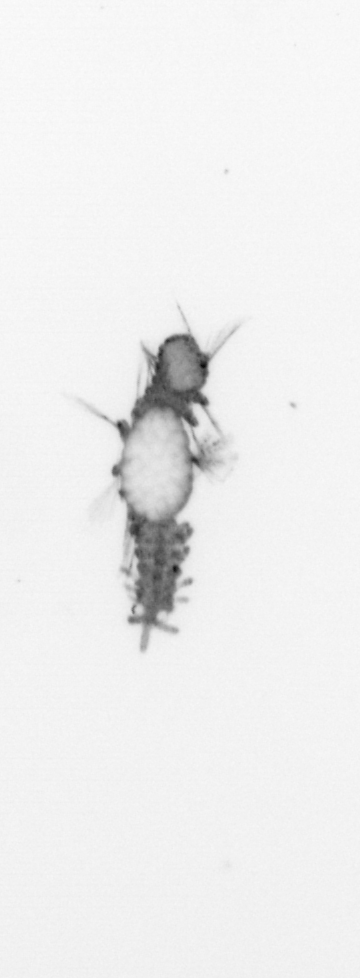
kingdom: Animalia
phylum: Annelida
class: Polychaeta
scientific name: Polychaeta
